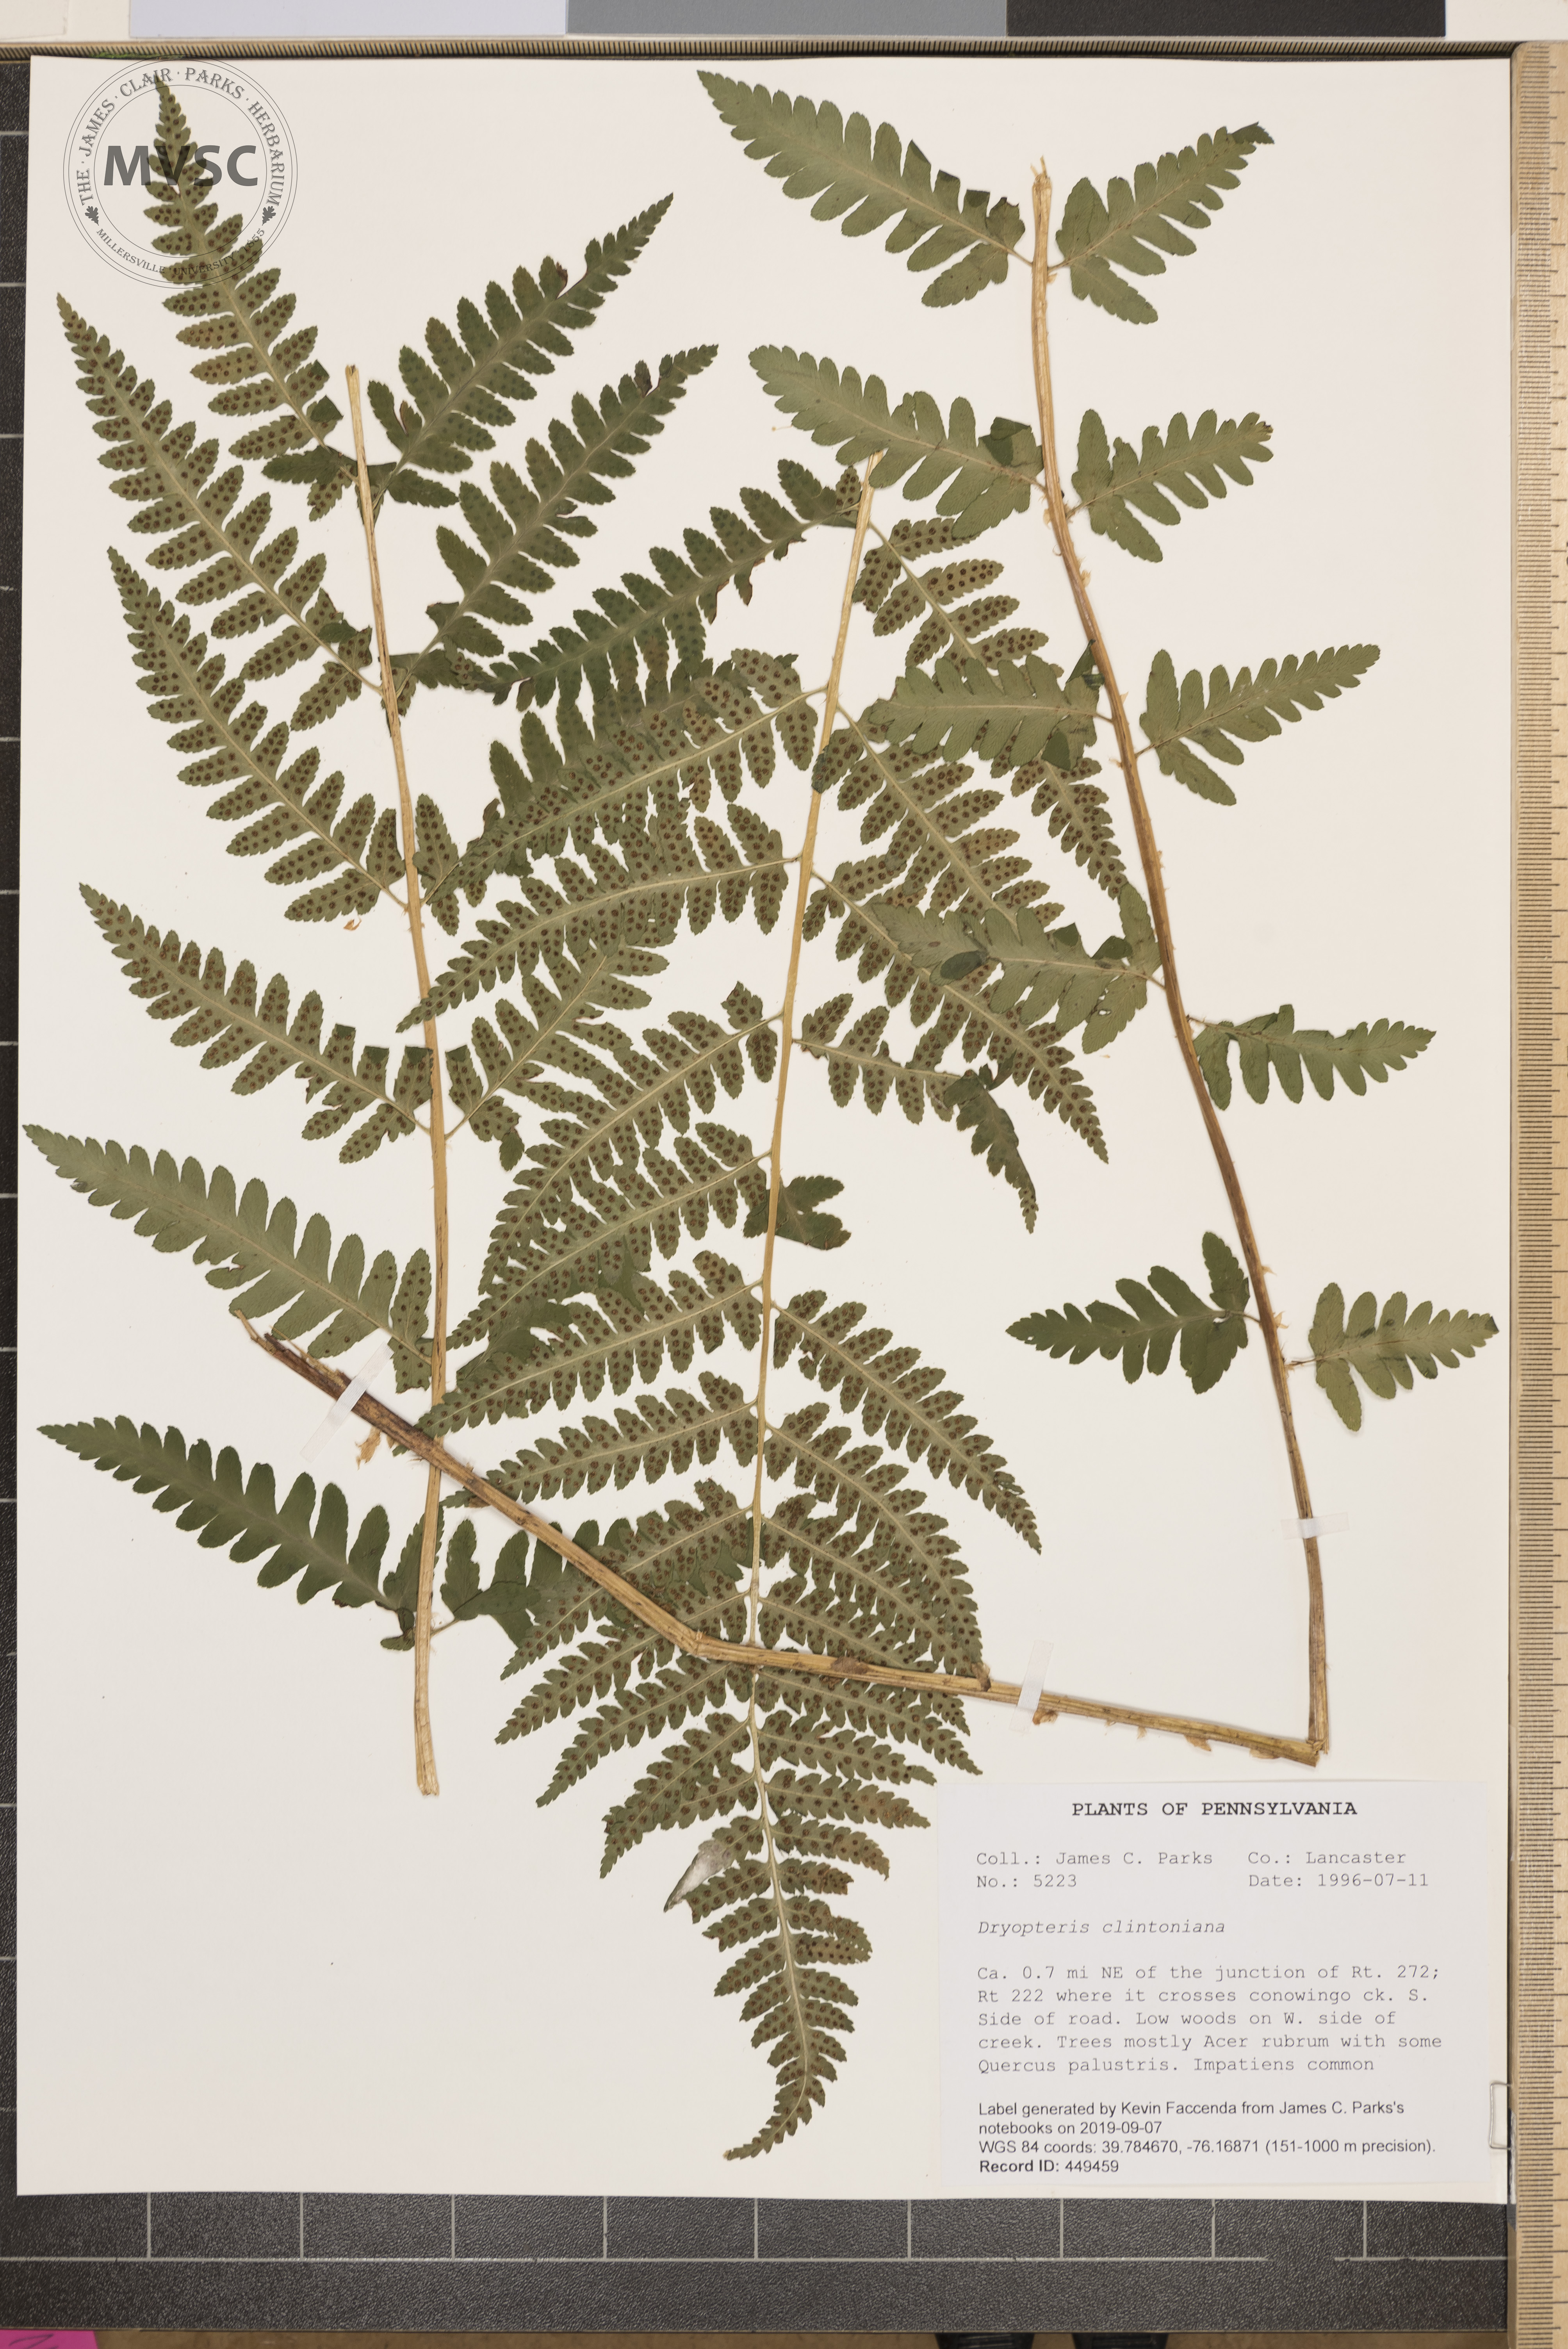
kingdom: Plantae
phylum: Tracheophyta
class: Polypodiopsida
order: Polypodiales
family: Dryopteridaceae
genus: Dryopteris
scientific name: Dryopteris clintoniana
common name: Clinton's wood fern
